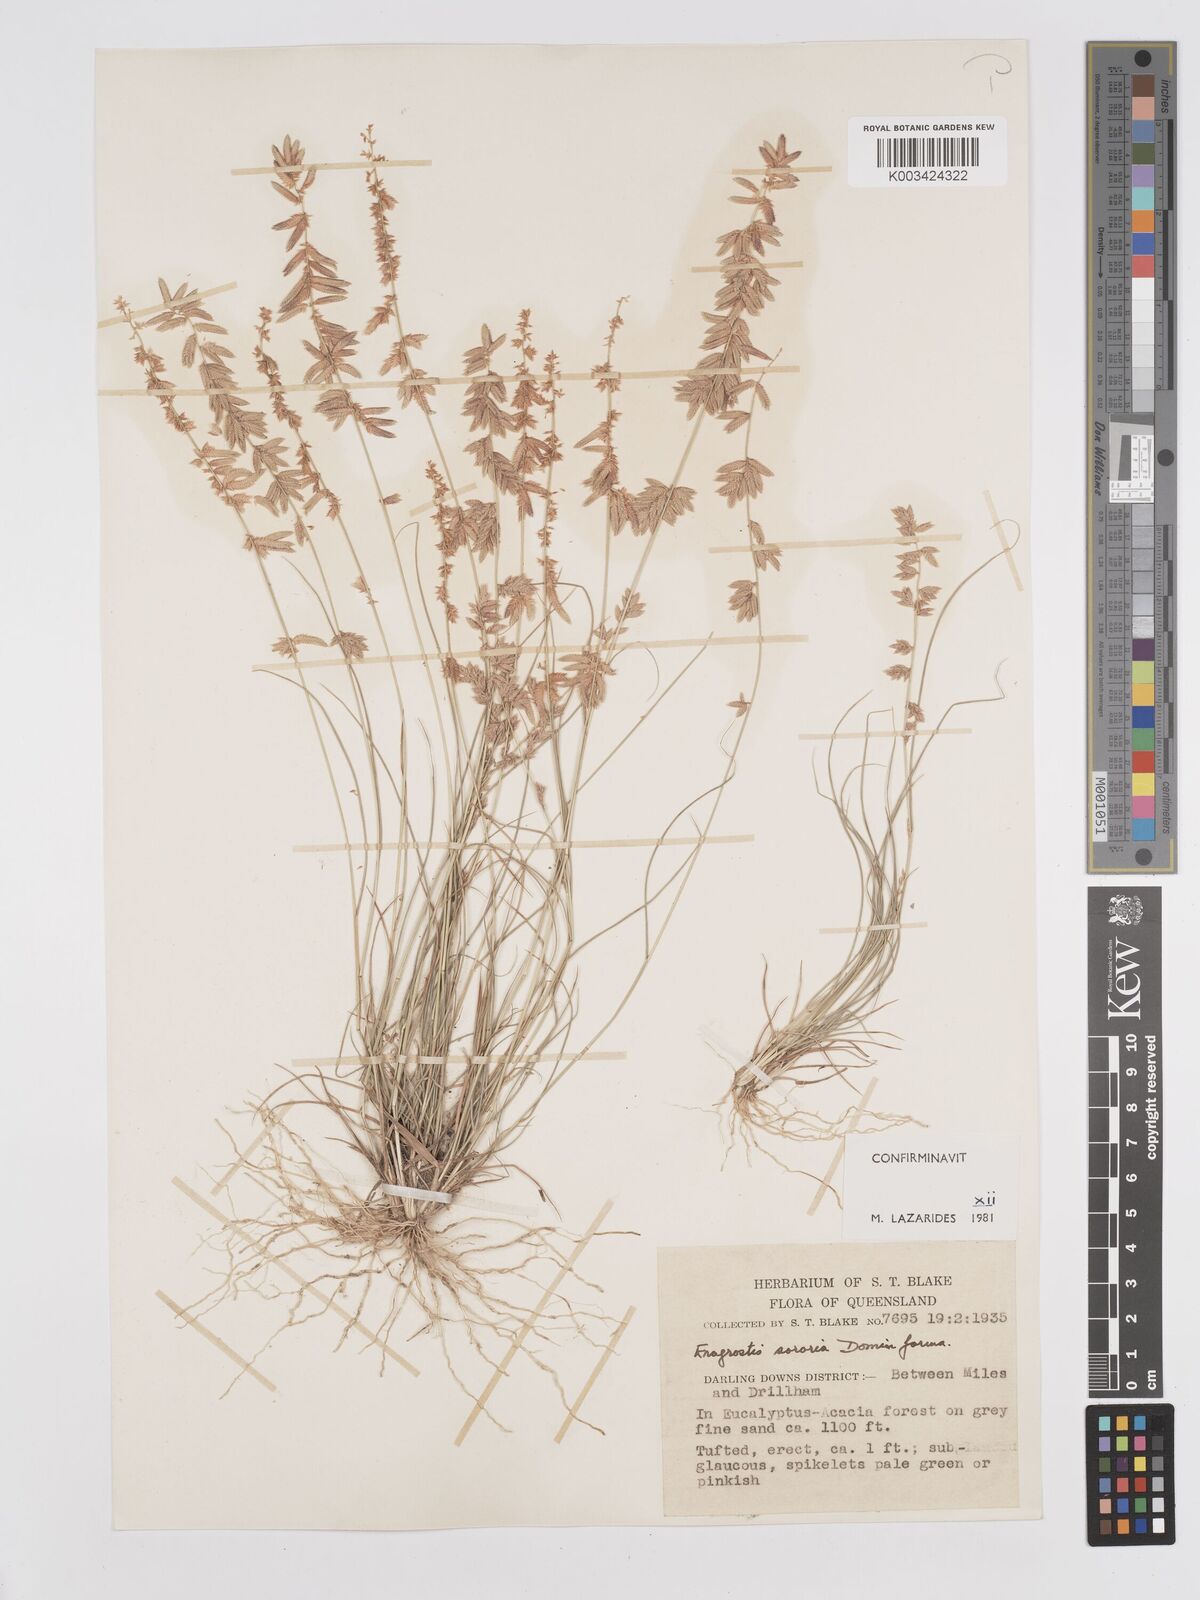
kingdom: Plantae
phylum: Tracheophyta
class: Liliopsida
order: Poales
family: Poaceae
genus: Eragrostis
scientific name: Eragrostis sororia
